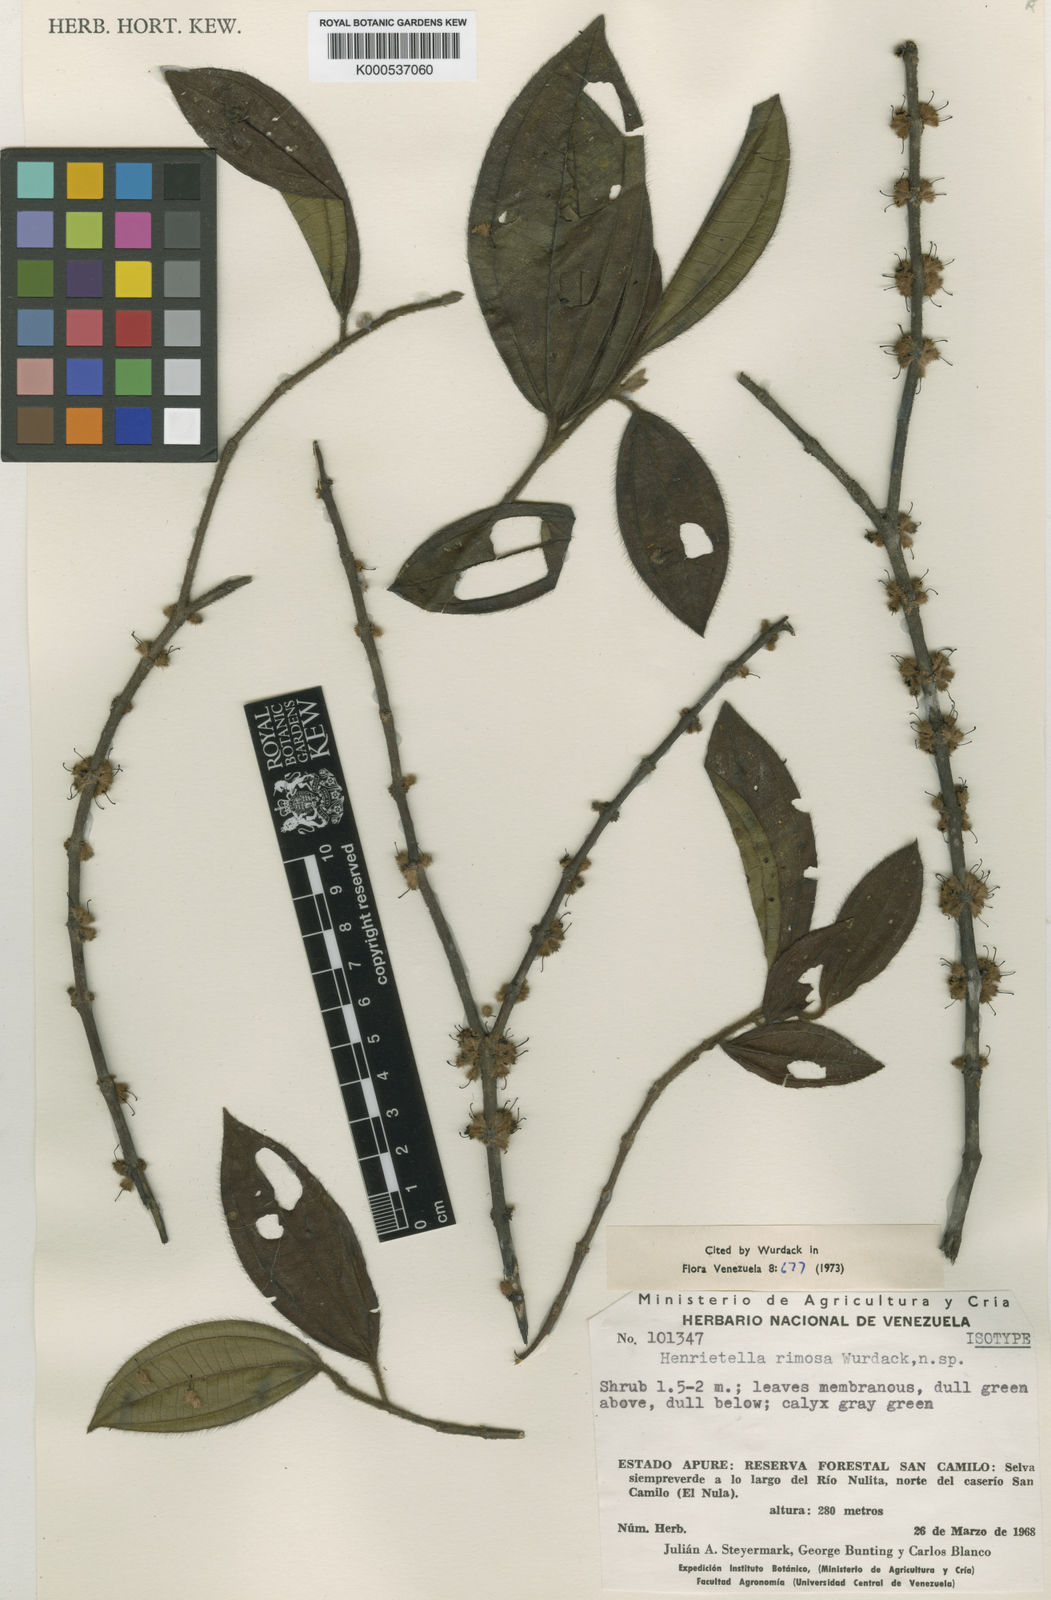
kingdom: Plantae
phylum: Tracheophyta
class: Magnoliopsida
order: Myrtales
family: Melastomataceae
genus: Henriettea
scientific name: Henriettea rimosa
